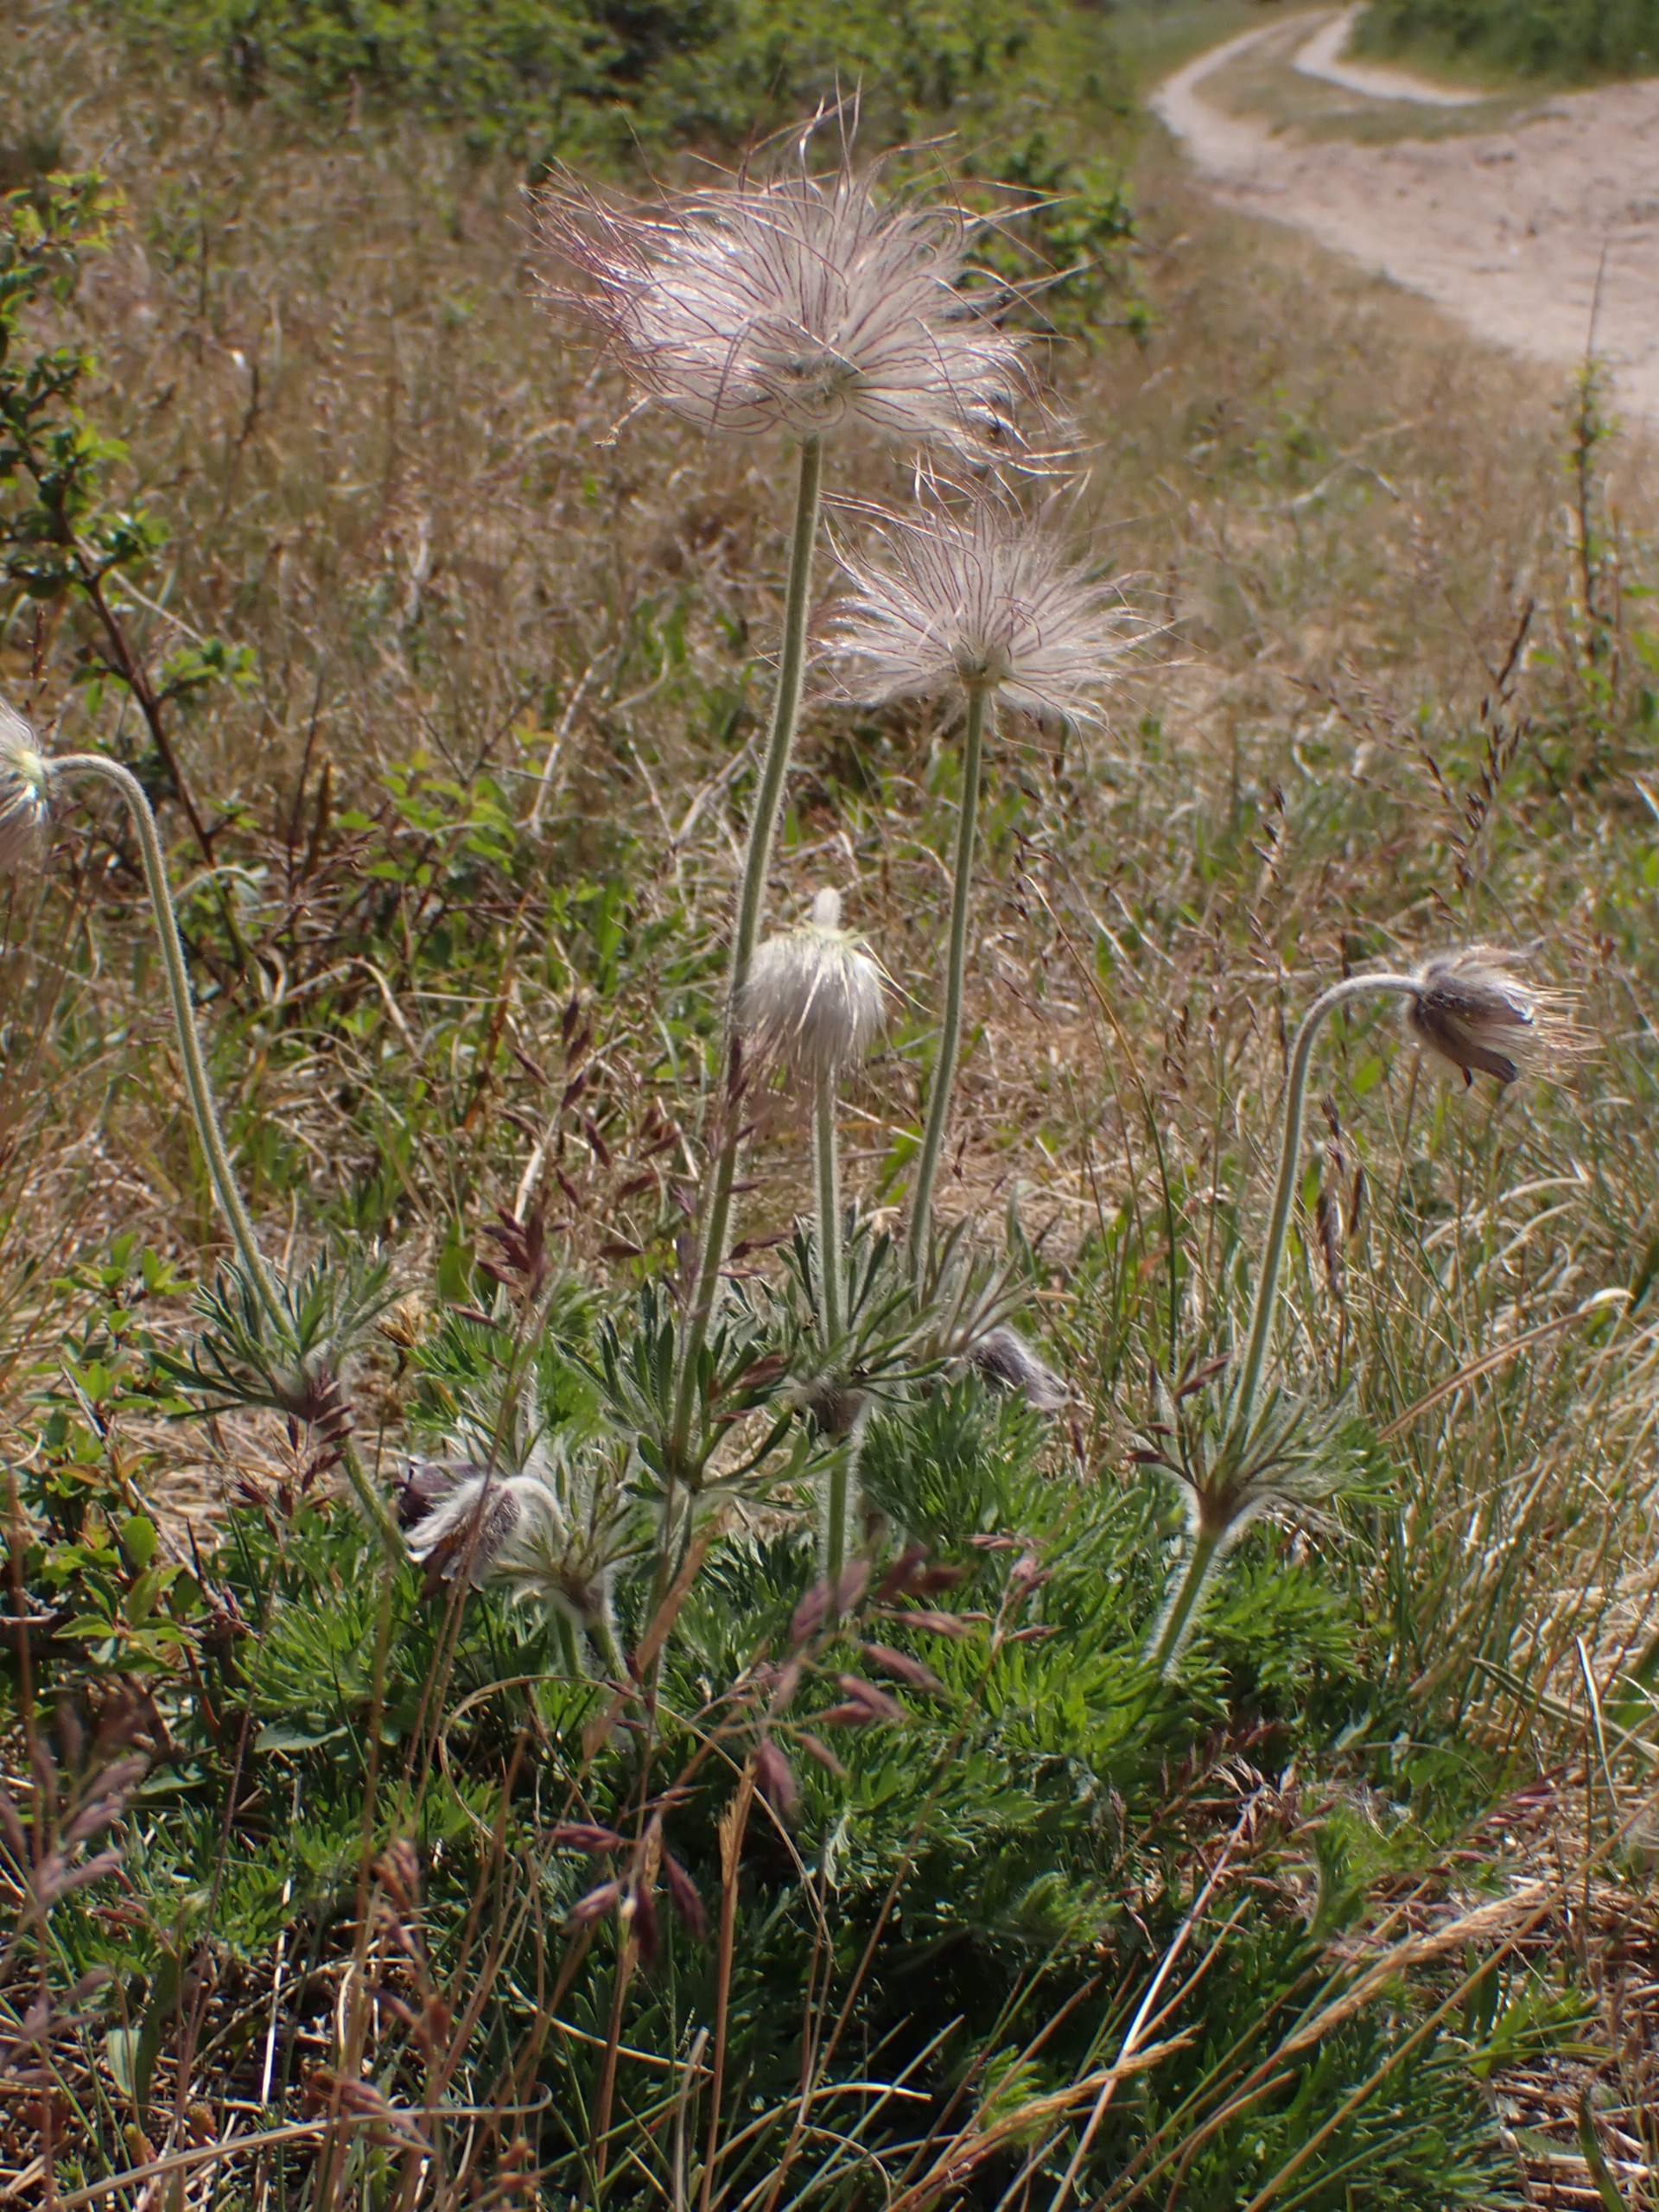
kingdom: Plantae
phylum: Tracheophyta
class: Magnoliopsida
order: Ranunculales
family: Ranunculaceae
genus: Pulsatilla
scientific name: Pulsatilla pratensis
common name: Nikkende kobjælde
